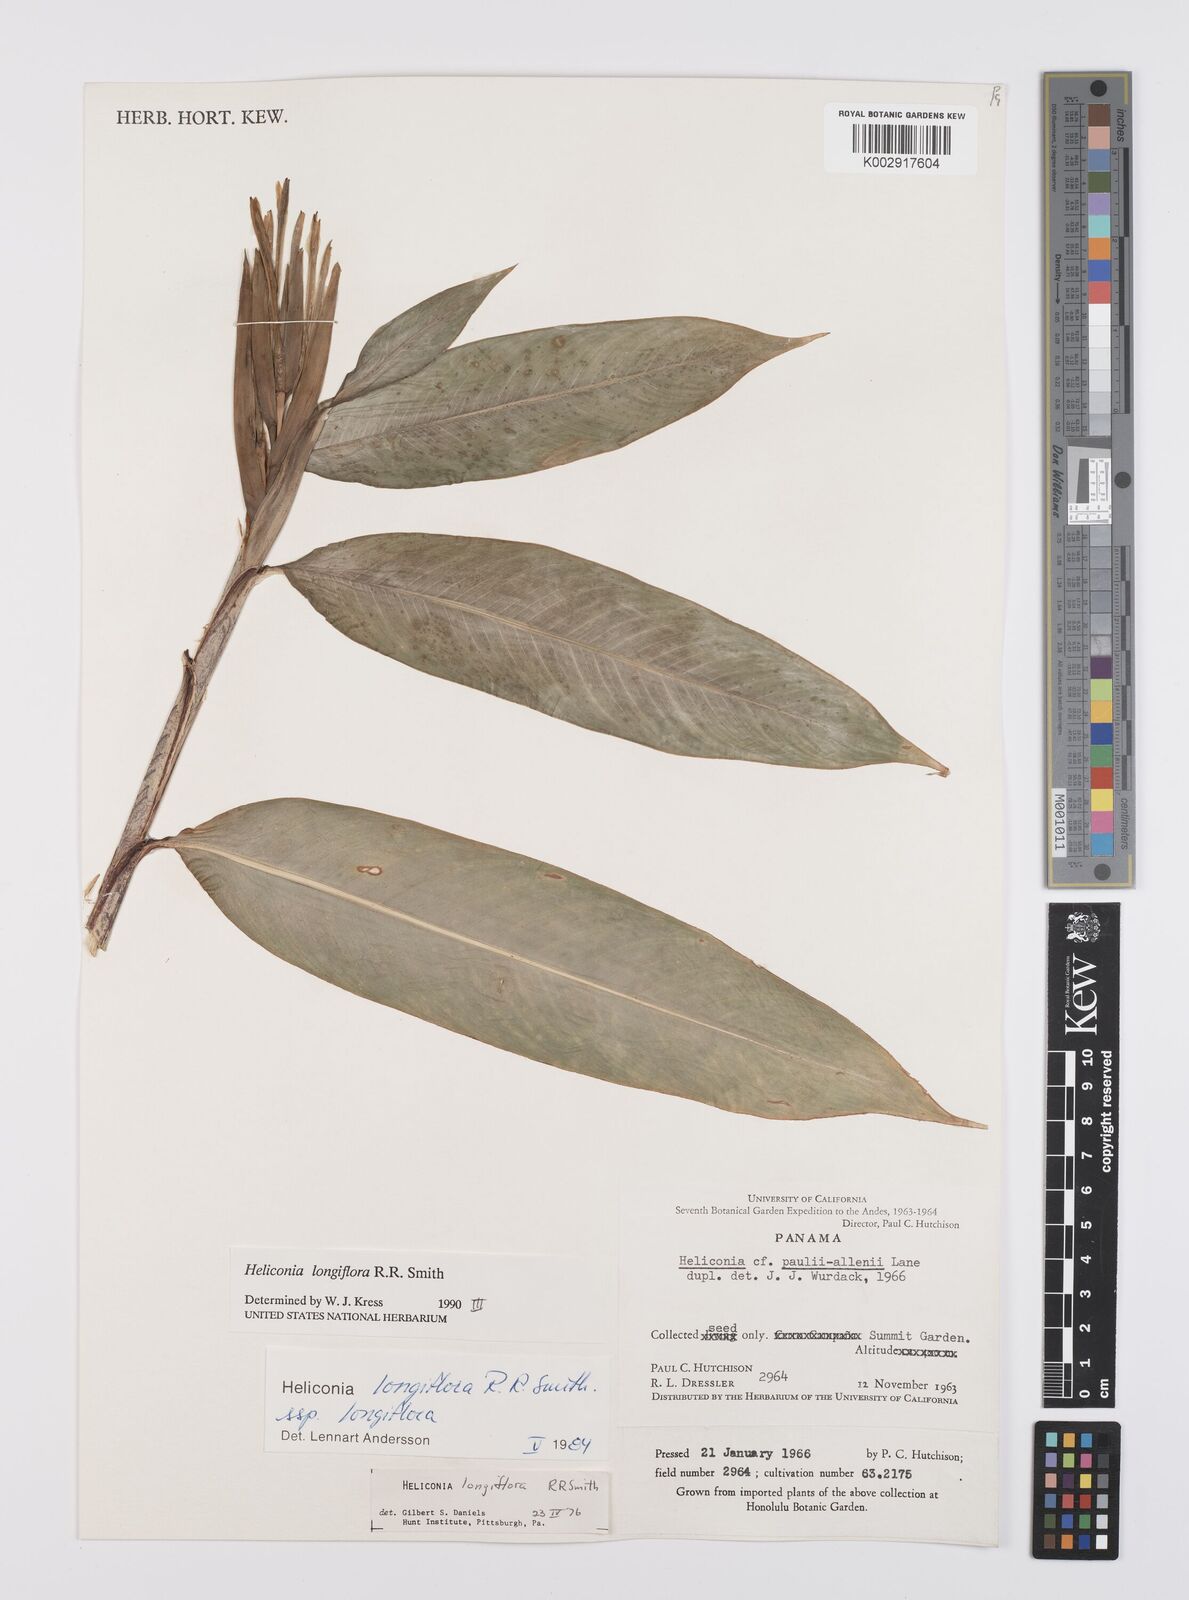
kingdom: Plantae
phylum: Tracheophyta
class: Liliopsida
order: Zingiberales
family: Heliconiaceae
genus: Heliconia
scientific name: Heliconia longiflora
